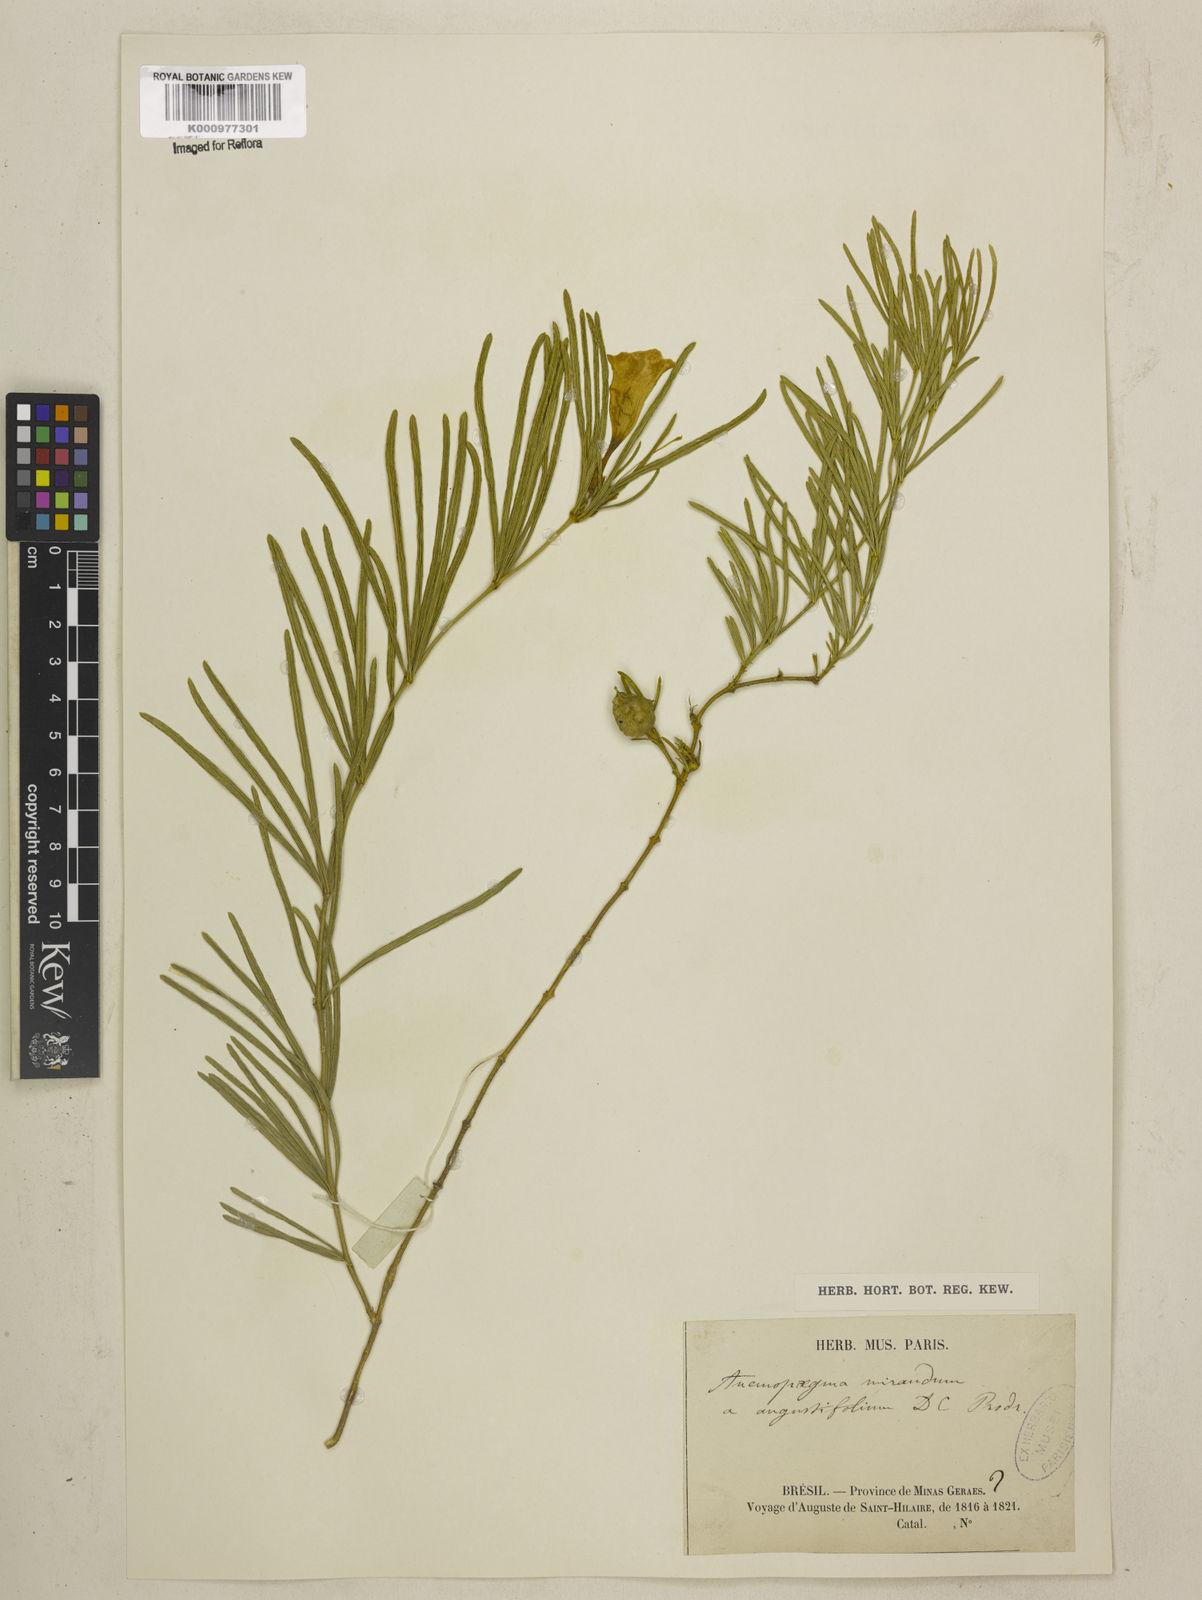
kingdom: Plantae
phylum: Tracheophyta
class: Magnoliopsida
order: Lamiales
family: Bignoniaceae
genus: Anemopaegma
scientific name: Anemopaegma arvense
